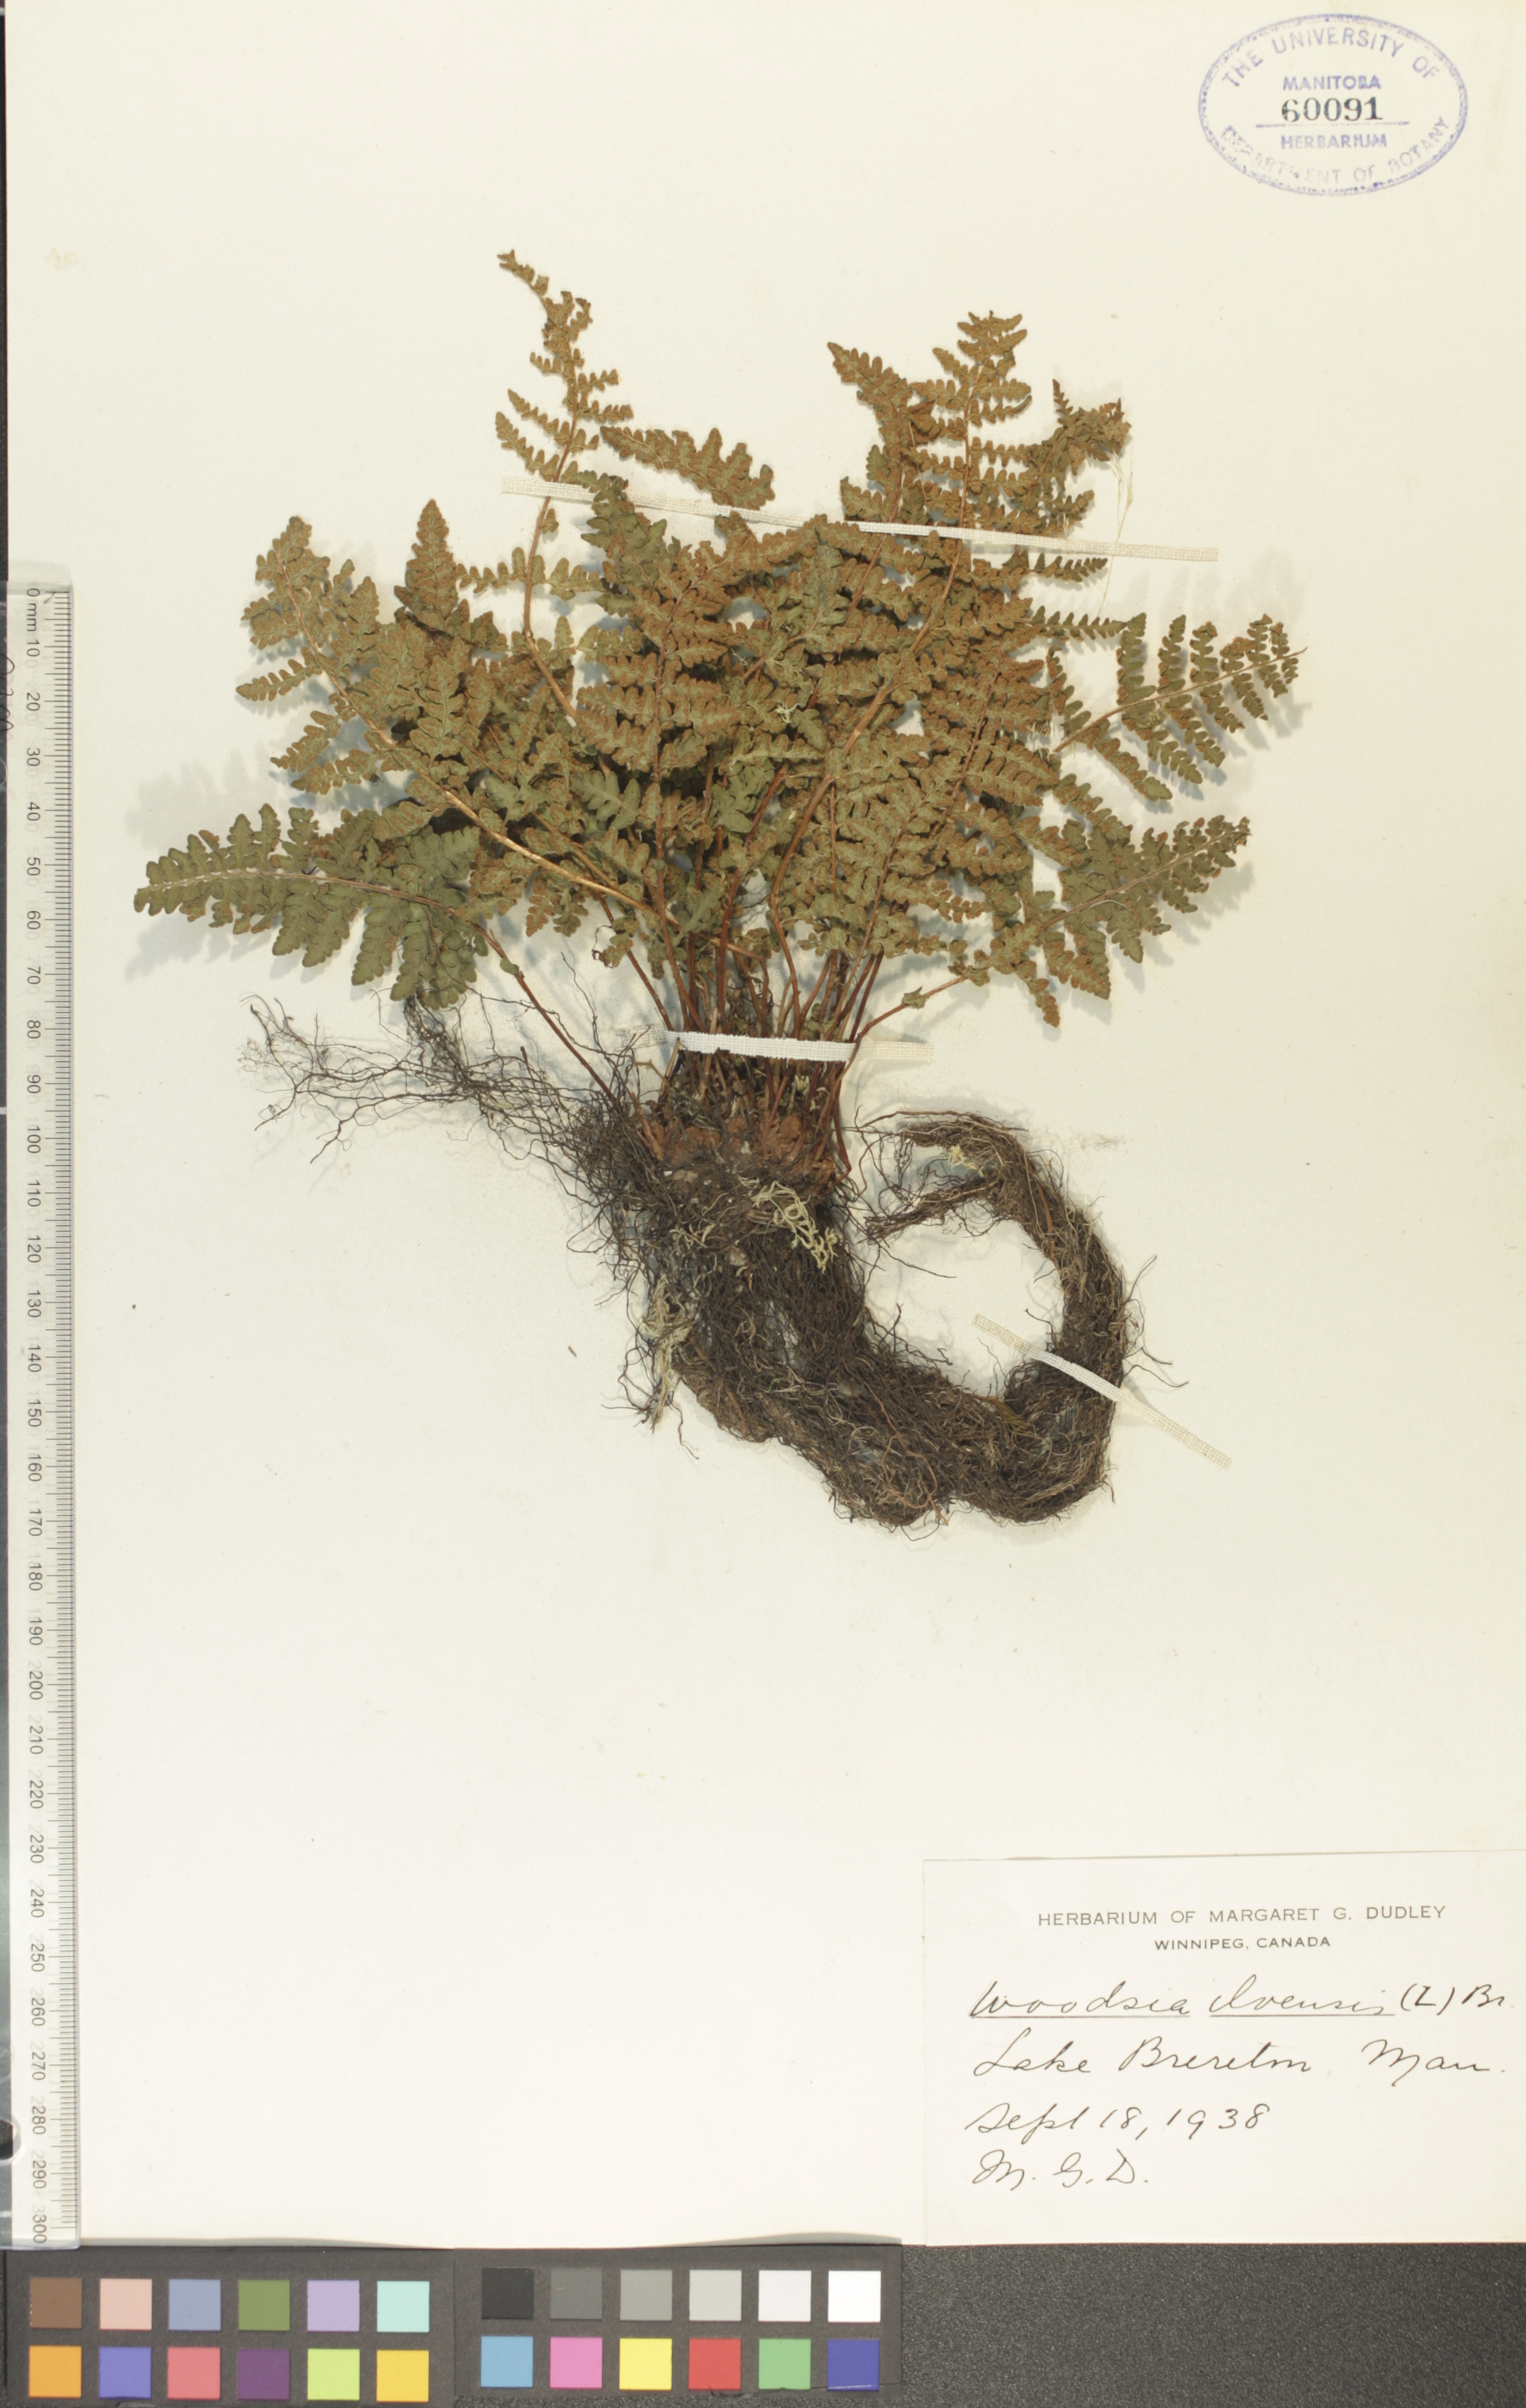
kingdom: Plantae
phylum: Tracheophyta
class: Polypodiopsida
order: Polypodiales
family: Woodsiaceae
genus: Woodsia
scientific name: Woodsia ilvensis
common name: Fragrant woodsia
